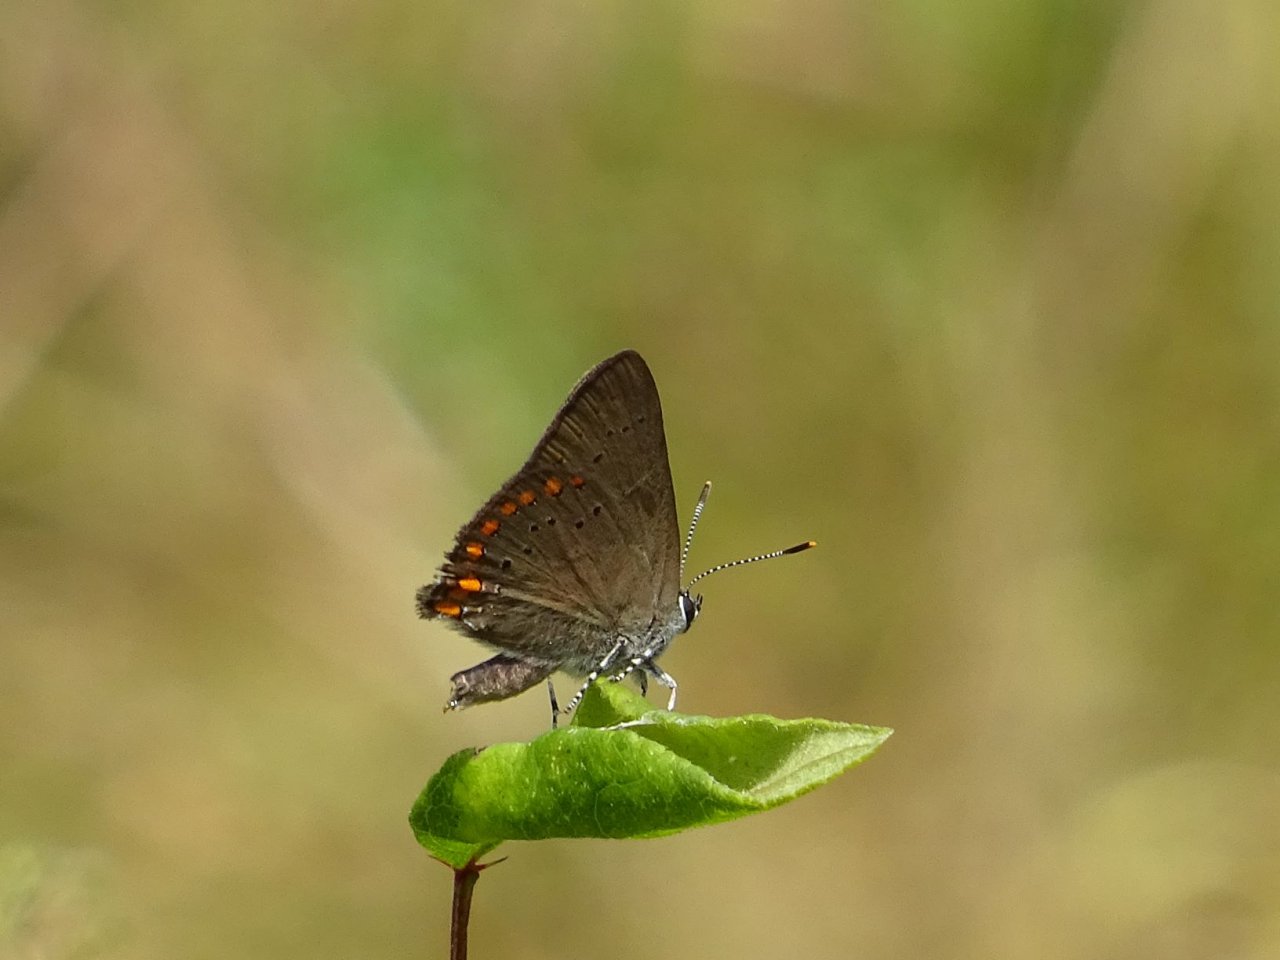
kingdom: Animalia
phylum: Arthropoda
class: Insecta
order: Lepidoptera
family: Lycaenidae
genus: Harkenclenus
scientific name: Harkenclenus titus
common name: Coral Hairstreak
